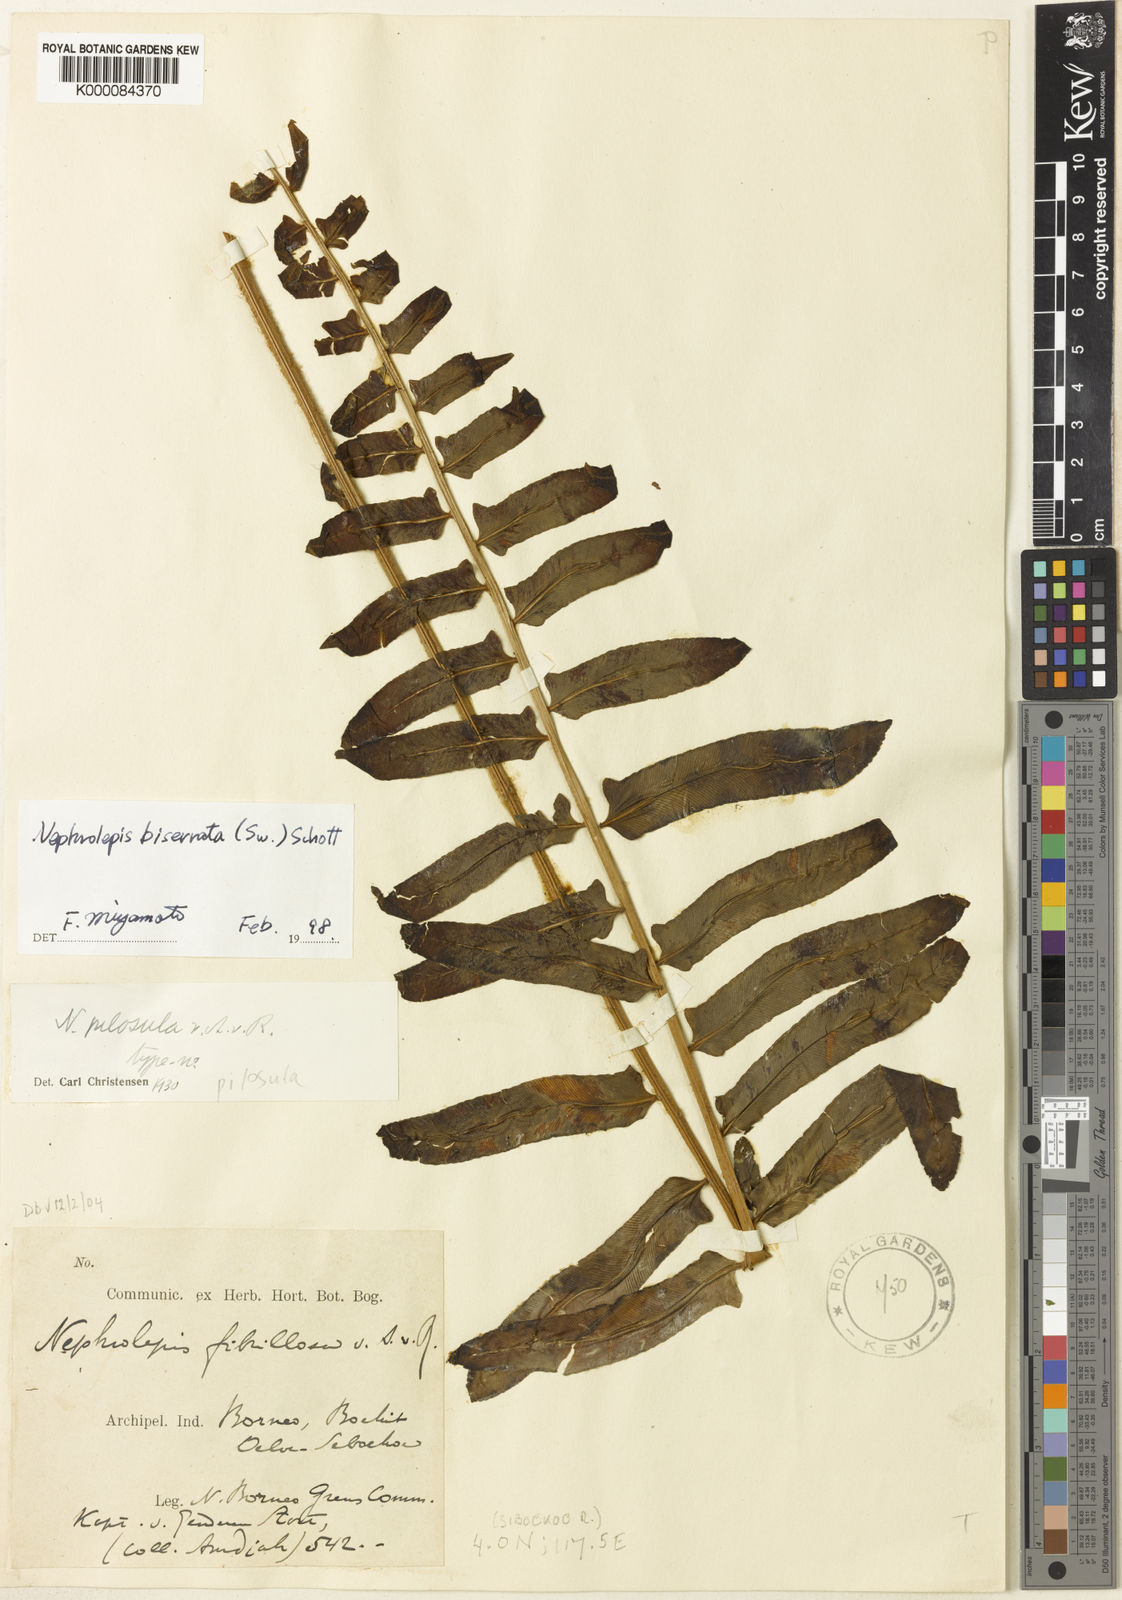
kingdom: Plantae
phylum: Tracheophyta
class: Polypodiopsida
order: Polypodiales
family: Nephrolepidaceae
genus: Nephrolepis
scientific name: Nephrolepis biserrata
